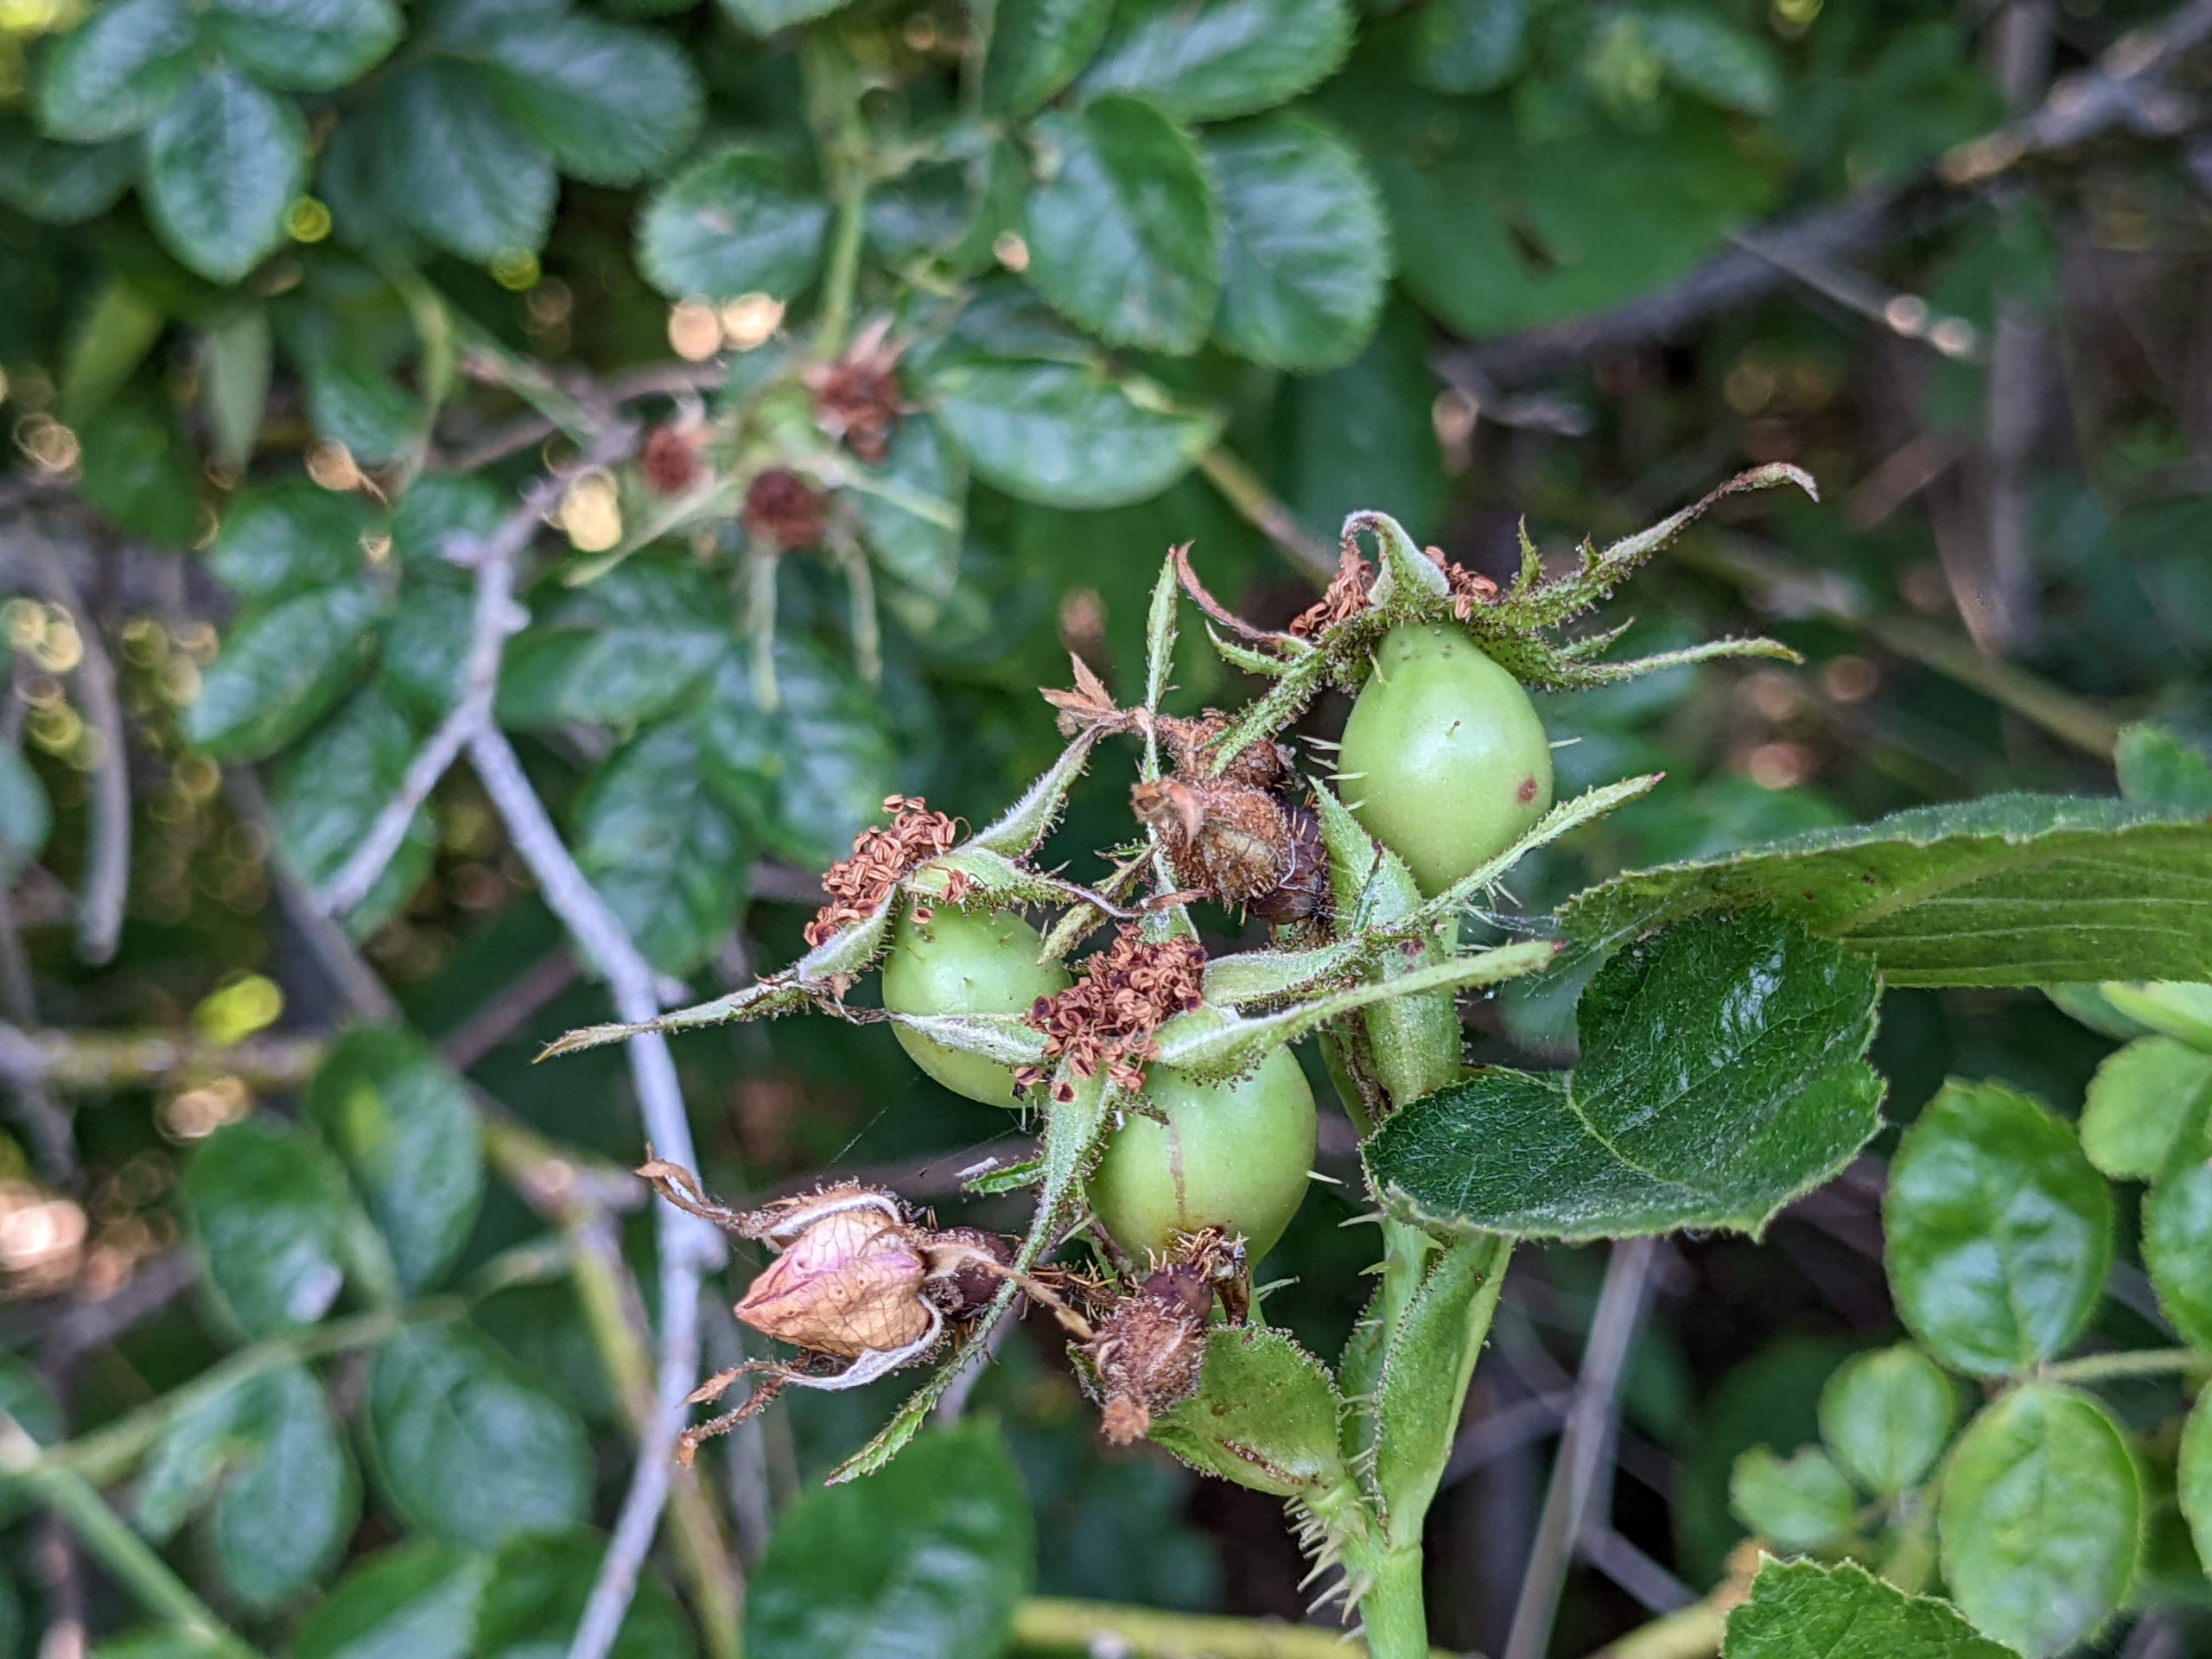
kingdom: Plantae
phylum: Tracheophyta
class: Magnoliopsida
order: Rosales
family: Rosaceae
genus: Rosa
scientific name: Rosa rubiginosa
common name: Æble-rose
